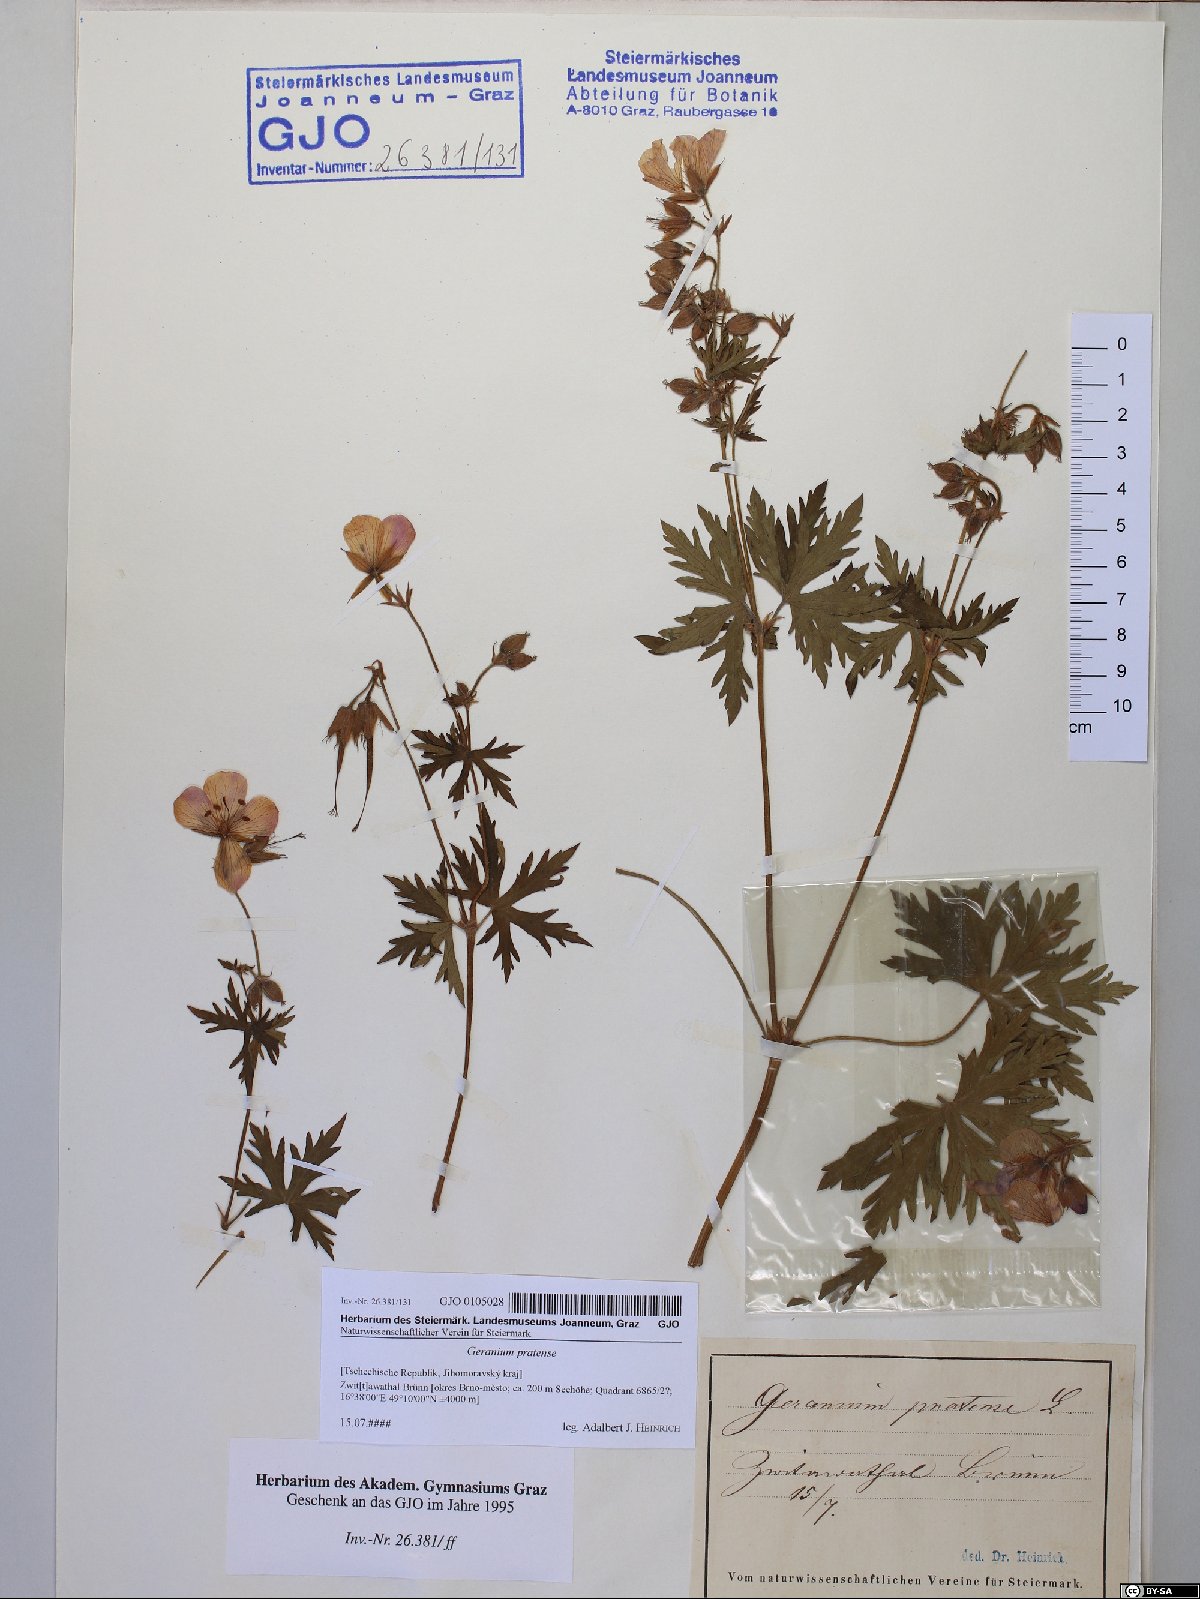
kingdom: Plantae
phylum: Tracheophyta
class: Magnoliopsida
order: Geraniales
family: Geraniaceae
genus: Geranium
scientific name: Geranium pratense
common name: Meadow crane's-bill
